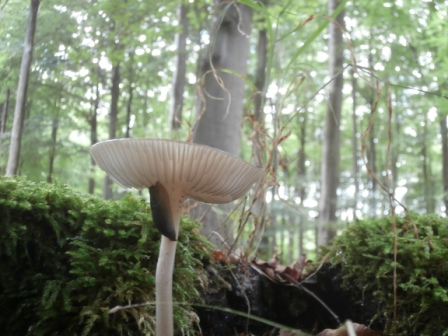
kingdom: Fungi
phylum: Basidiomycota
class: Agaricomycetes
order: Agaricales
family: Physalacriaceae
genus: Hymenopellis
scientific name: Hymenopellis radicata
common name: almindelig pælerodshat
